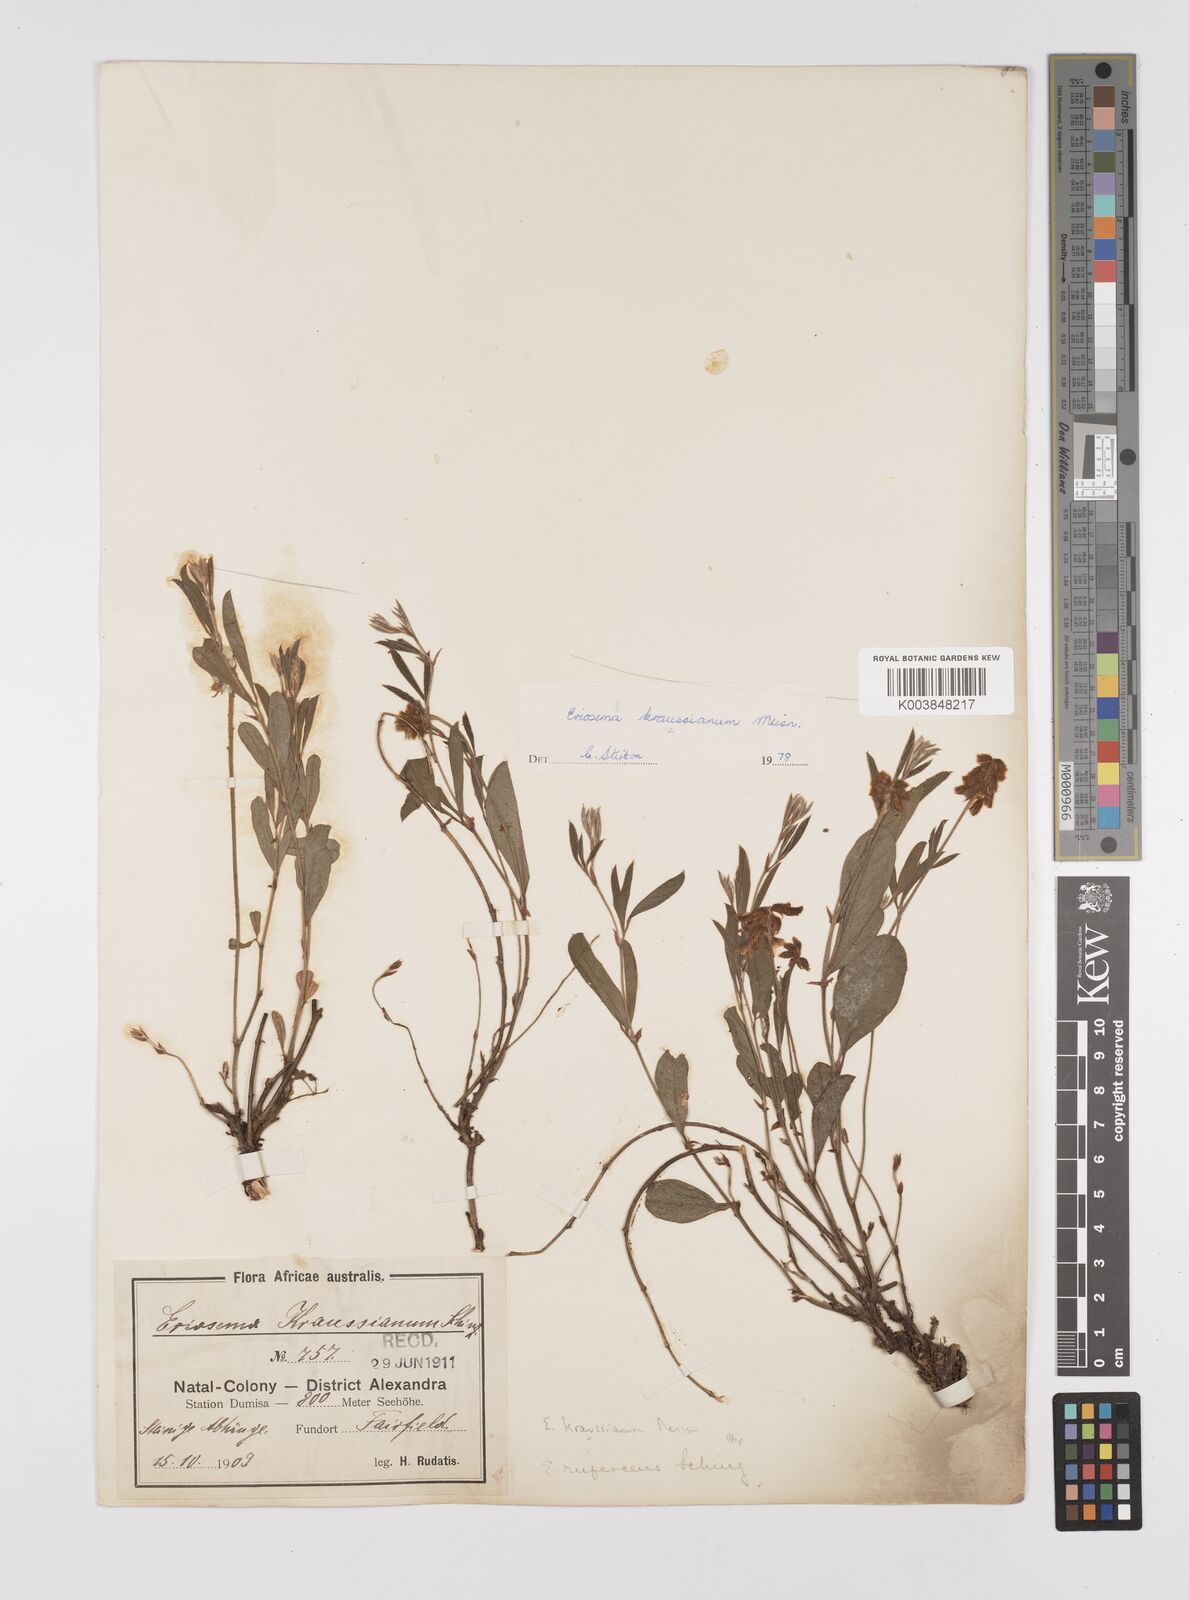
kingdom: Plantae
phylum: Tracheophyta
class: Magnoliopsida
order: Fabales
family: Fabaceae
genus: Eriosema
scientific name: Eriosema kraussianum
